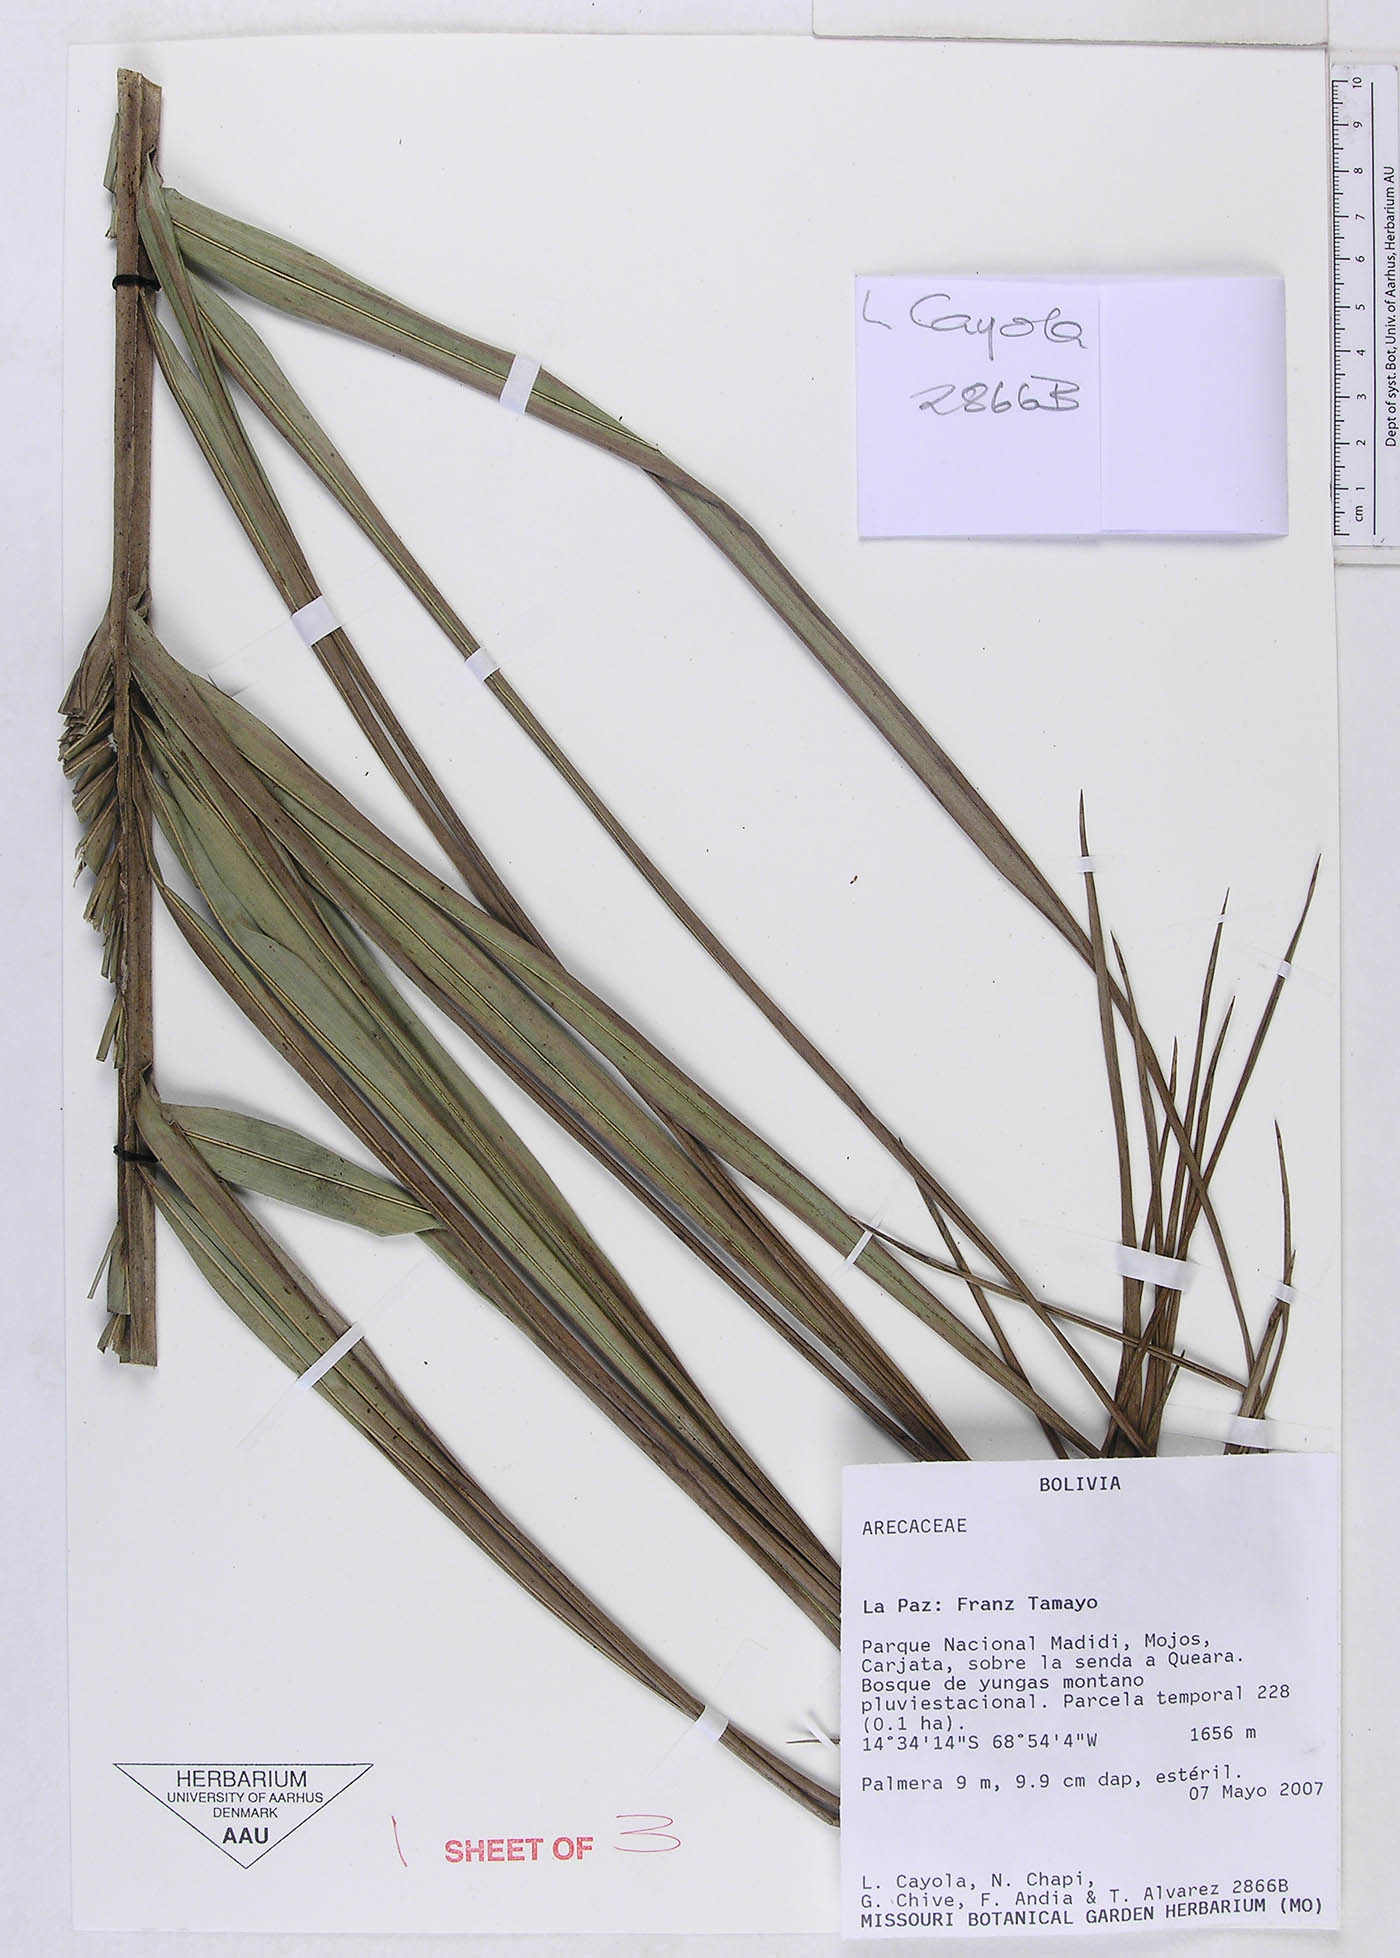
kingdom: Plantae
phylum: Tracheophyta
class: Liliopsida
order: Arecales
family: Arecaceae
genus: Ceroxylon
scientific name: Ceroxylon pityrophyllum
